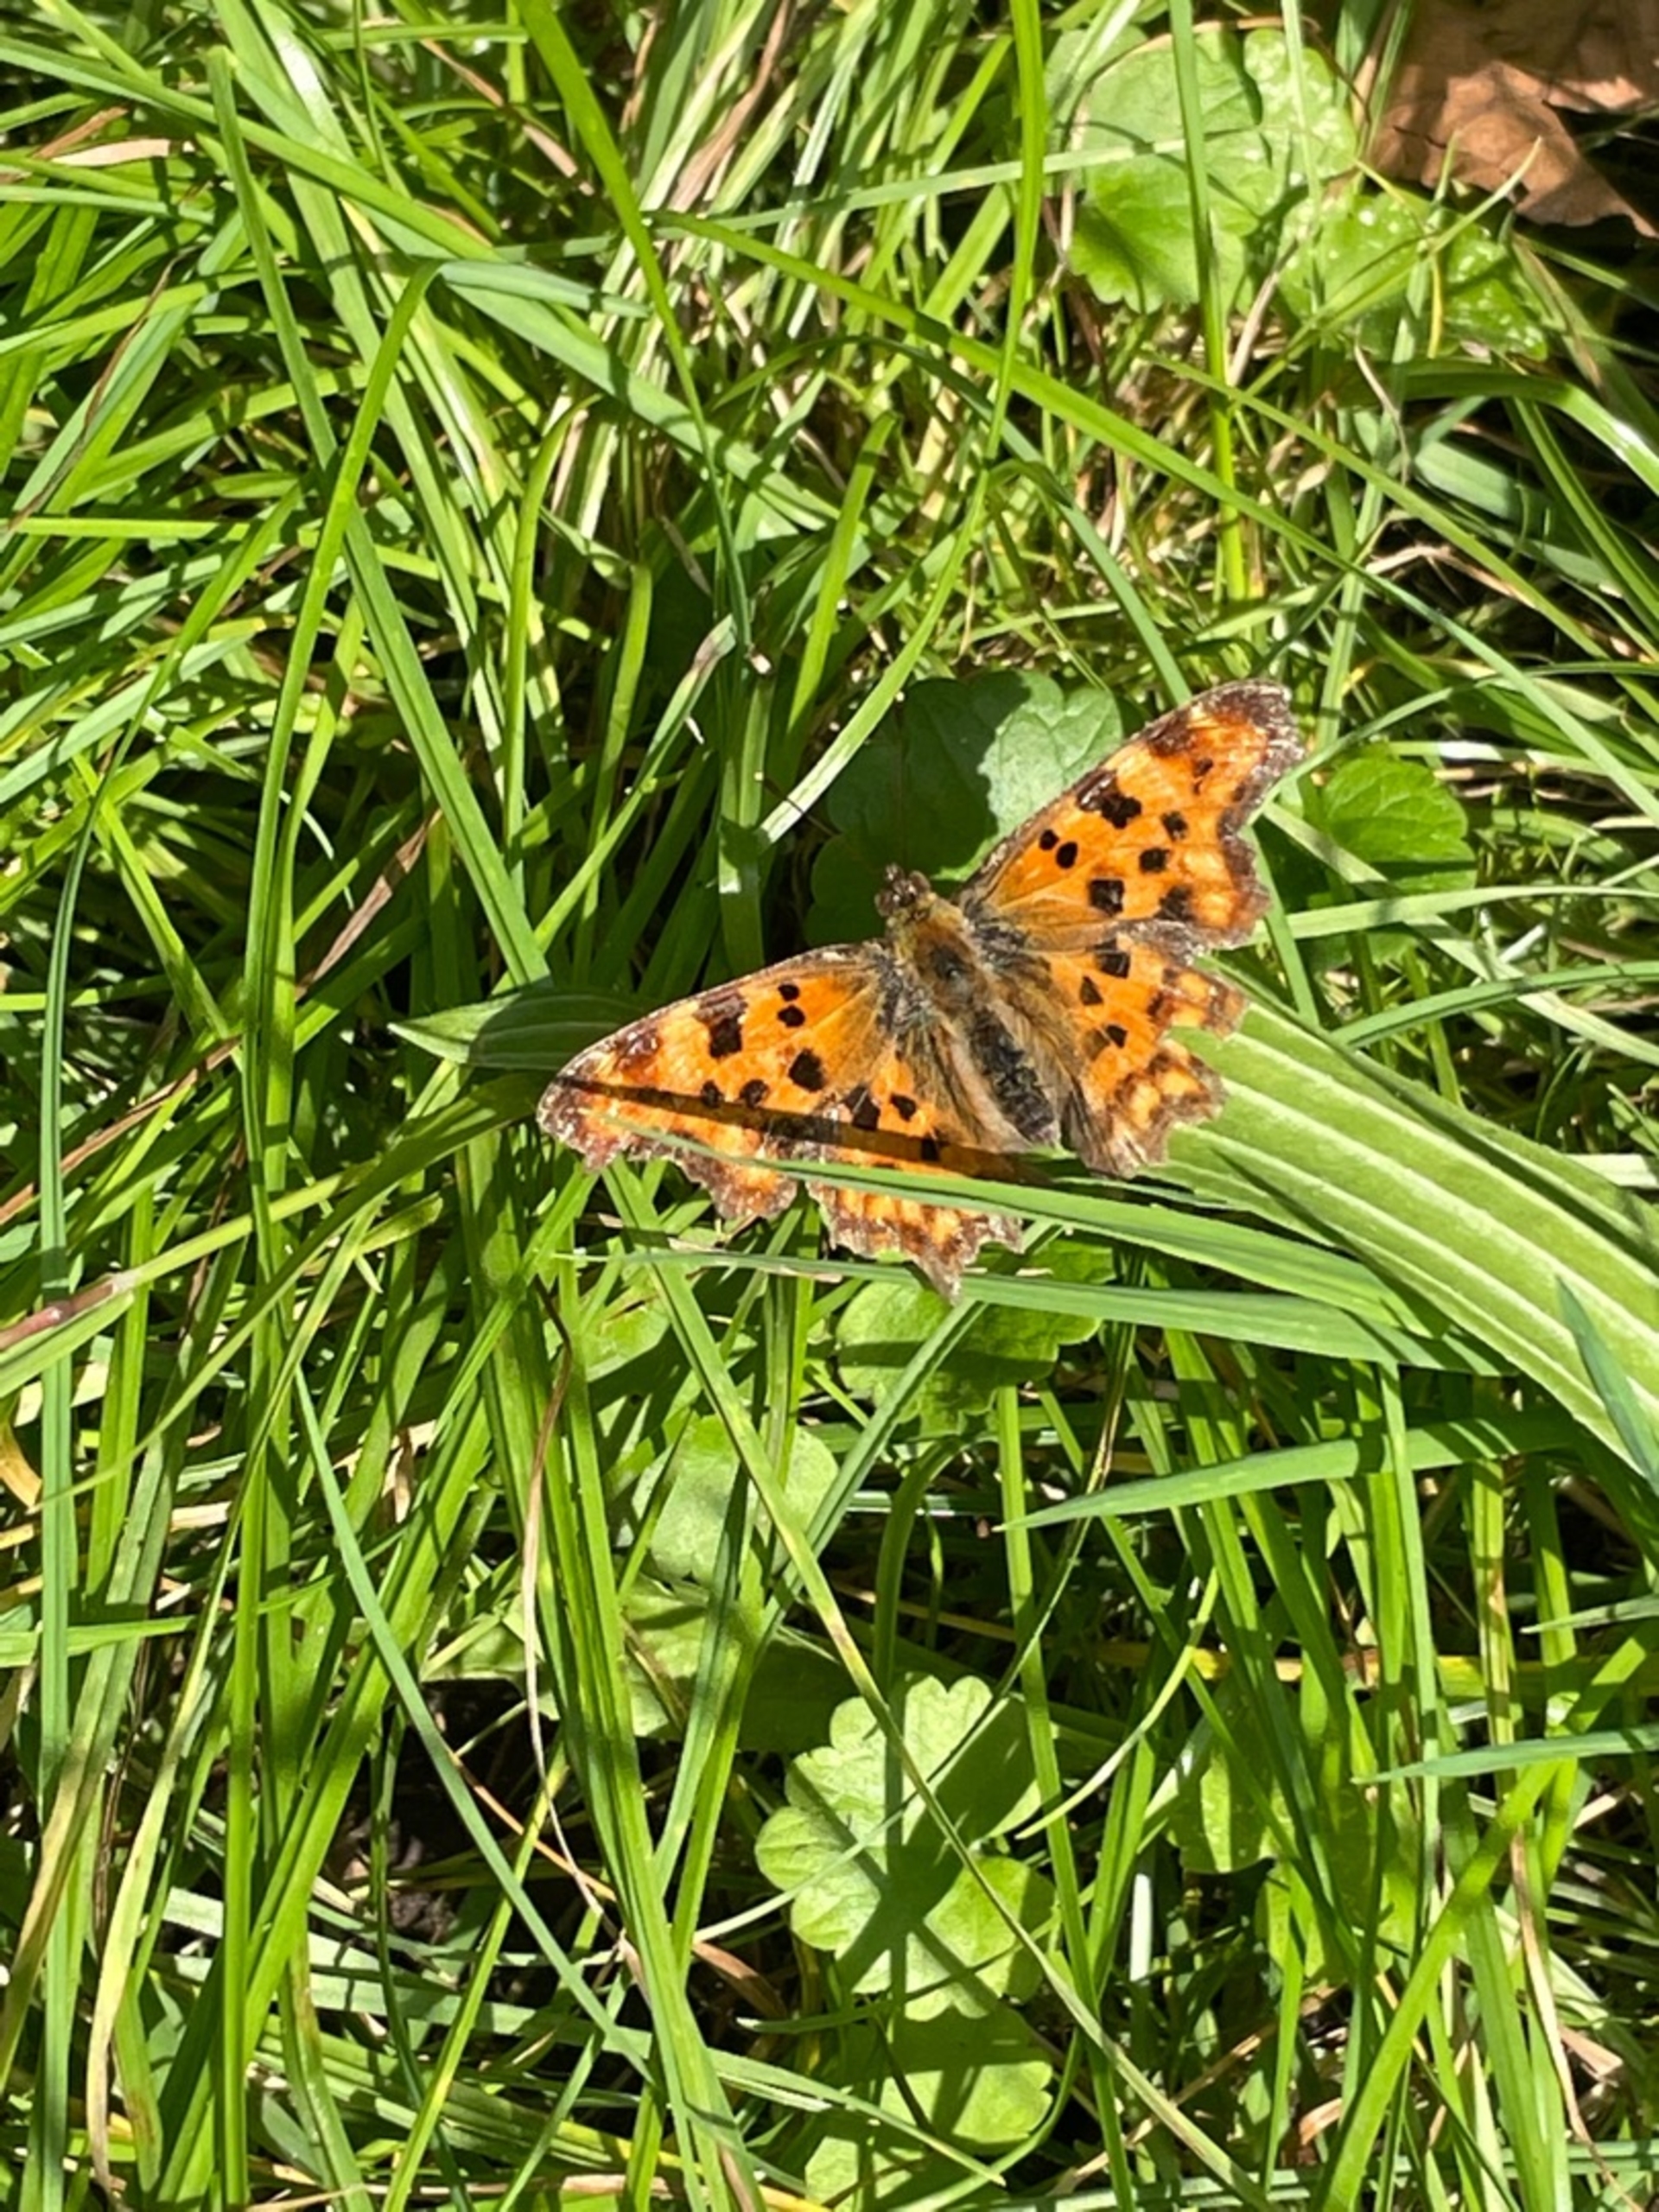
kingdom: Animalia
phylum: Arthropoda
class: Insecta
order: Lepidoptera
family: Nymphalidae
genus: Polygonia
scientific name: Polygonia c-album
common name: Det hvide C
